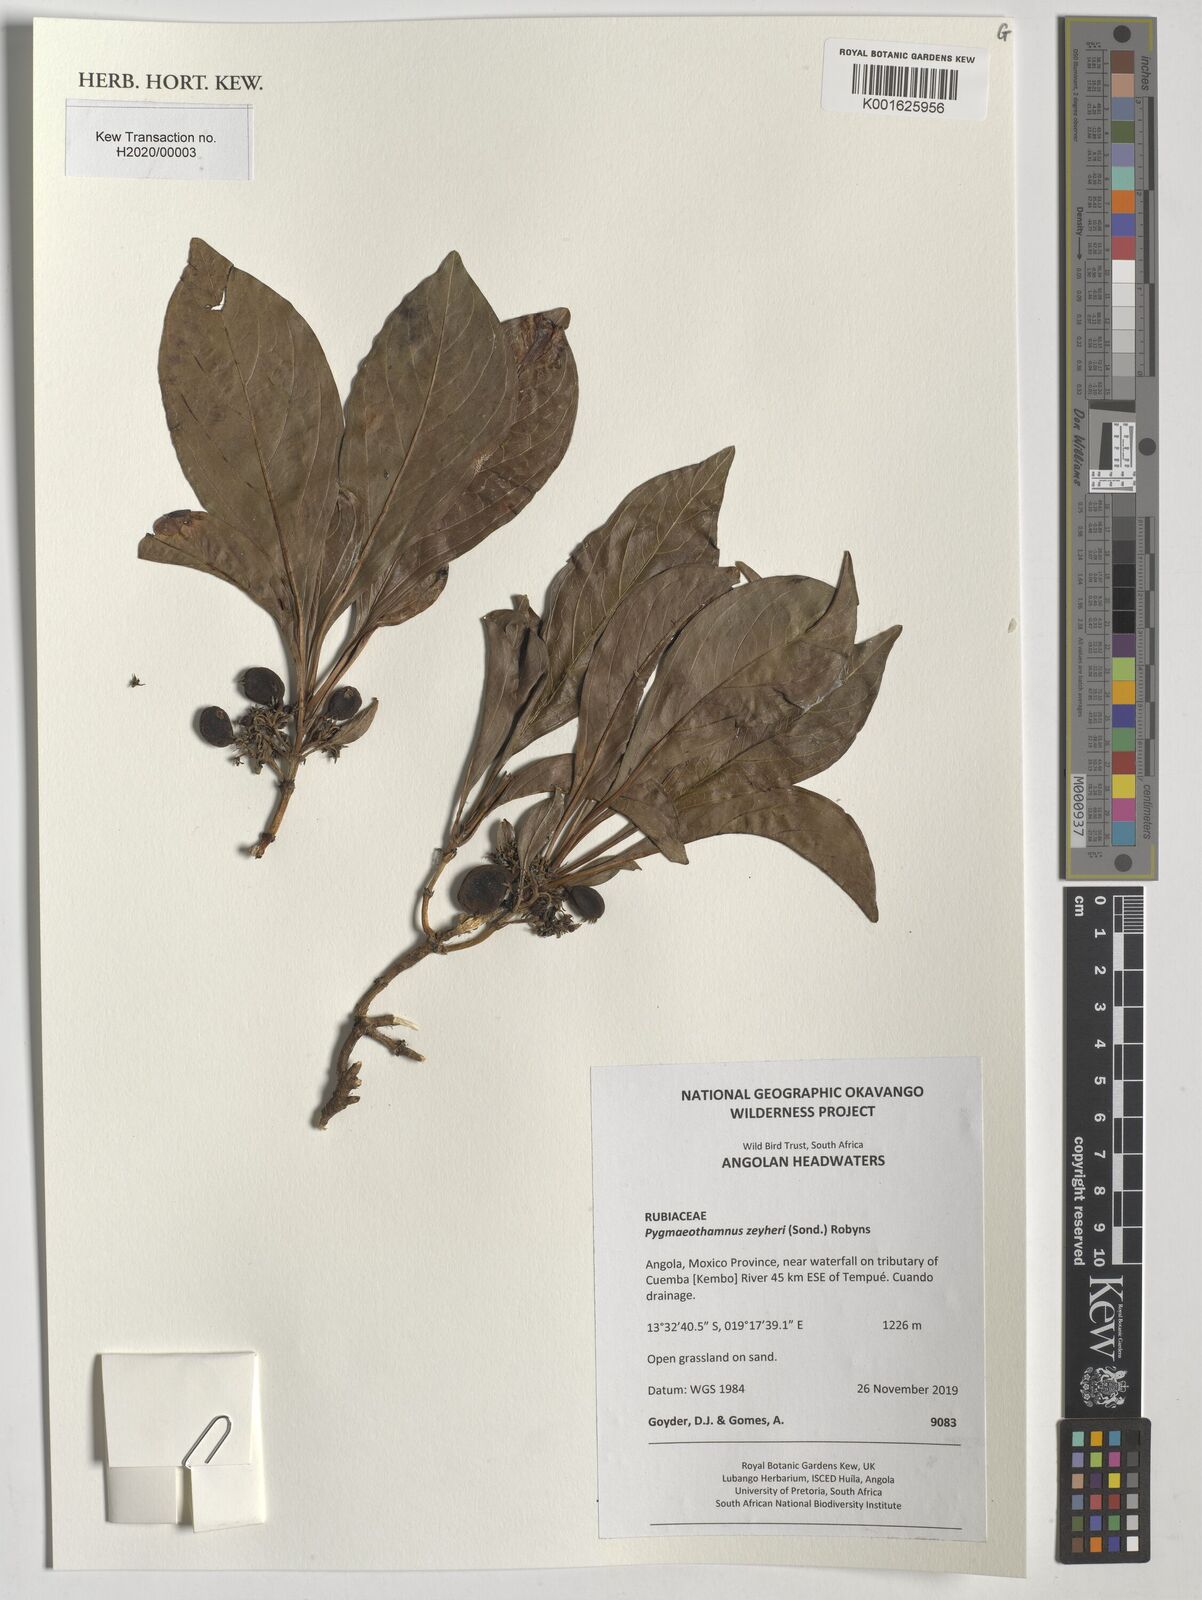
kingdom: Plantae
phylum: Tracheophyta
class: Magnoliopsida
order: Gentianales
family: Rubiaceae
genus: Pygmaeothamnus
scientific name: Pygmaeothamnus zeyheri
